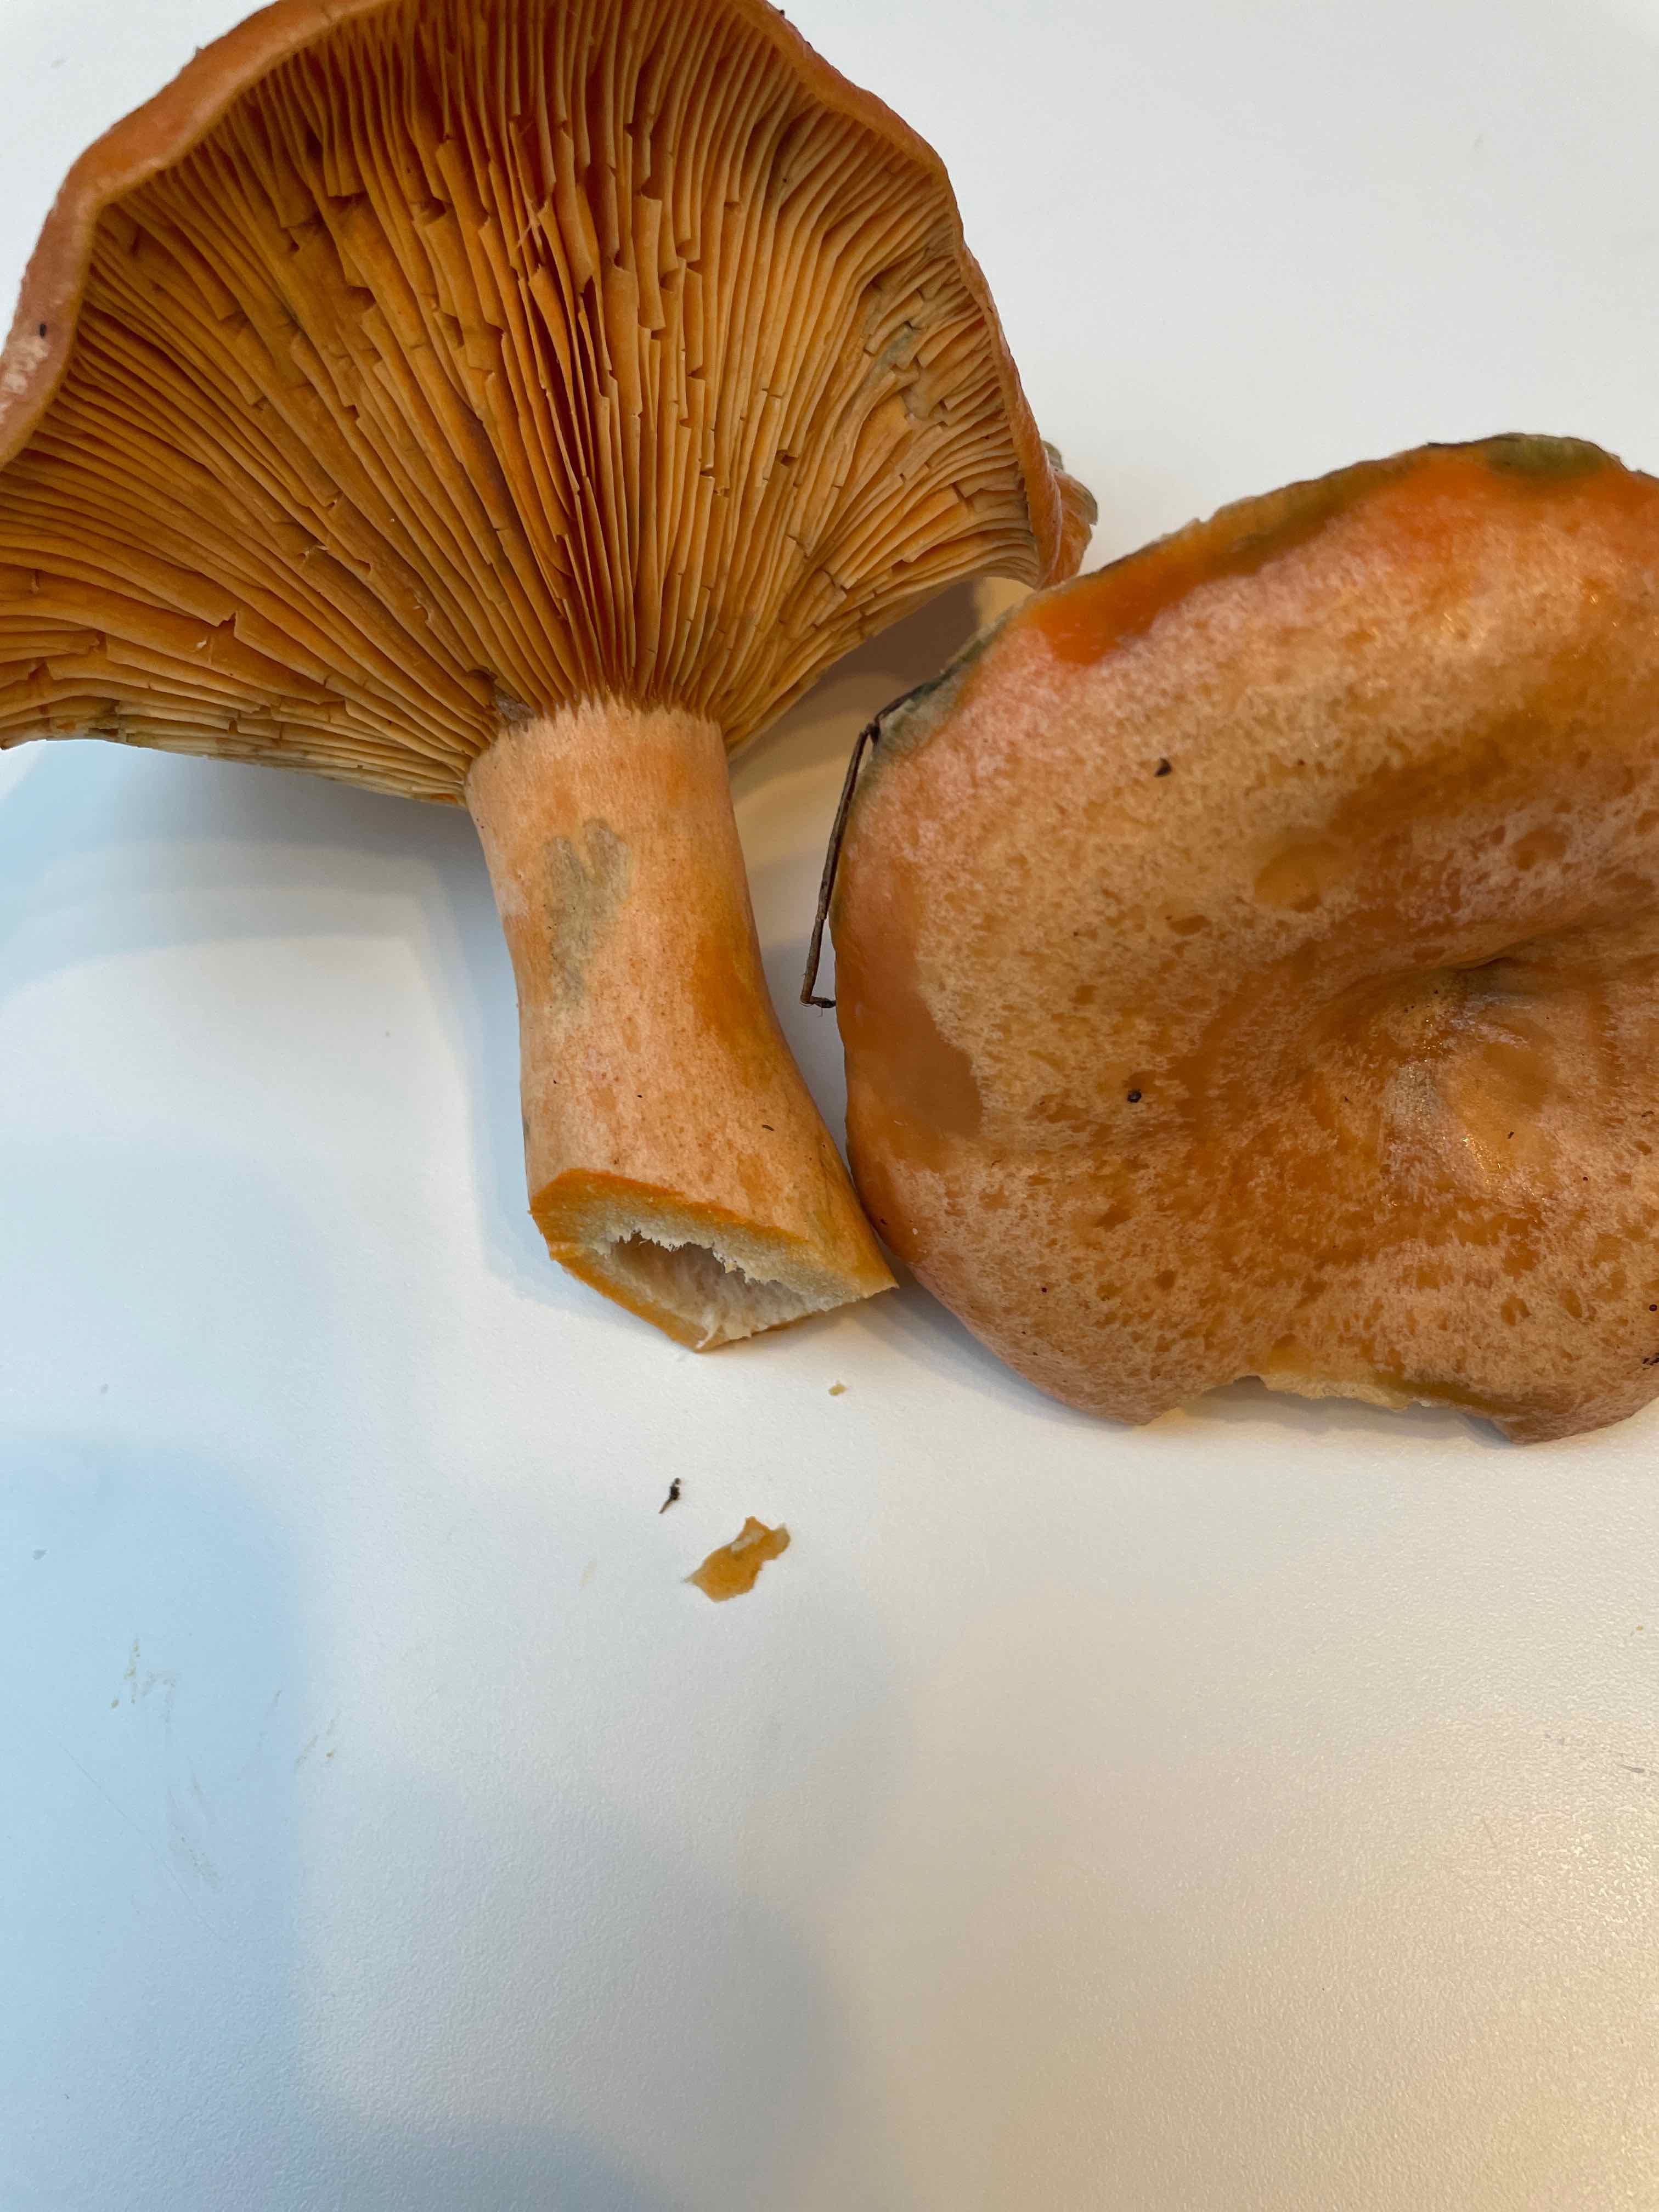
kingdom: Fungi
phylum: Basidiomycota
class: Agaricomycetes
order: Russulales
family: Russulaceae
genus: Lactarius
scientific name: Lactarius deterrimus
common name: gran-mælkehat
